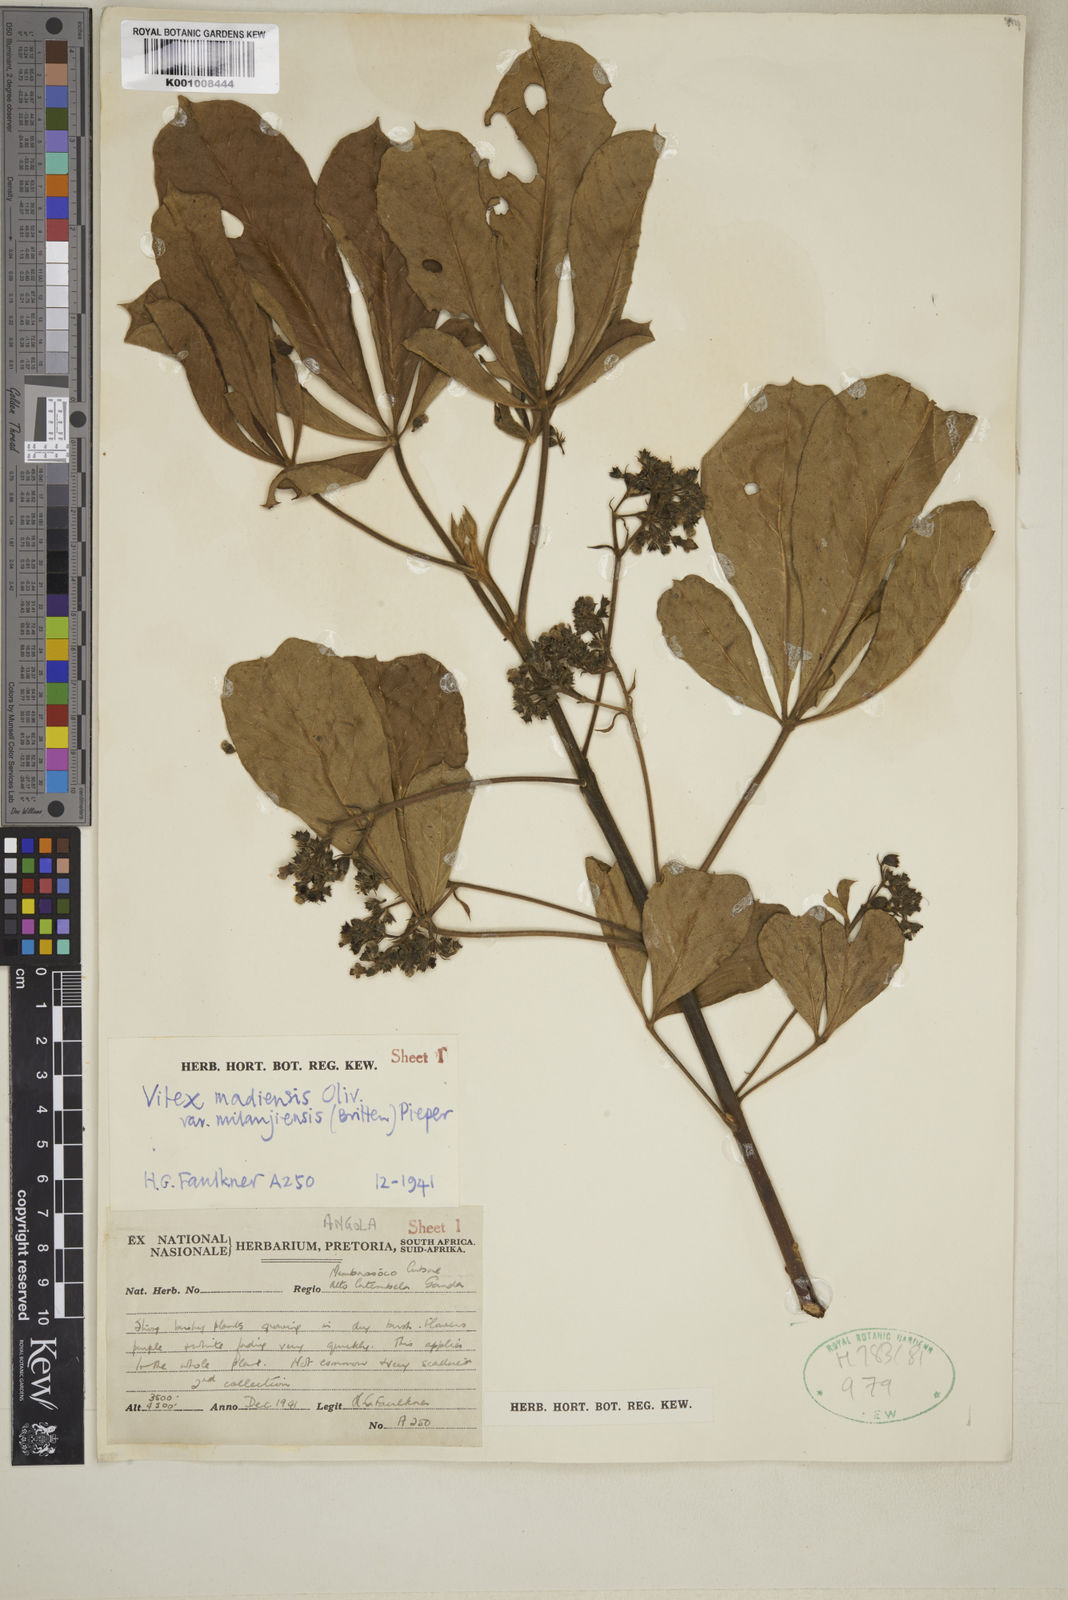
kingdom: Plantae
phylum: Tracheophyta
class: Magnoliopsida
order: Lamiales
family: Lamiaceae
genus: Vitex
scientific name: Vitex madiensis
